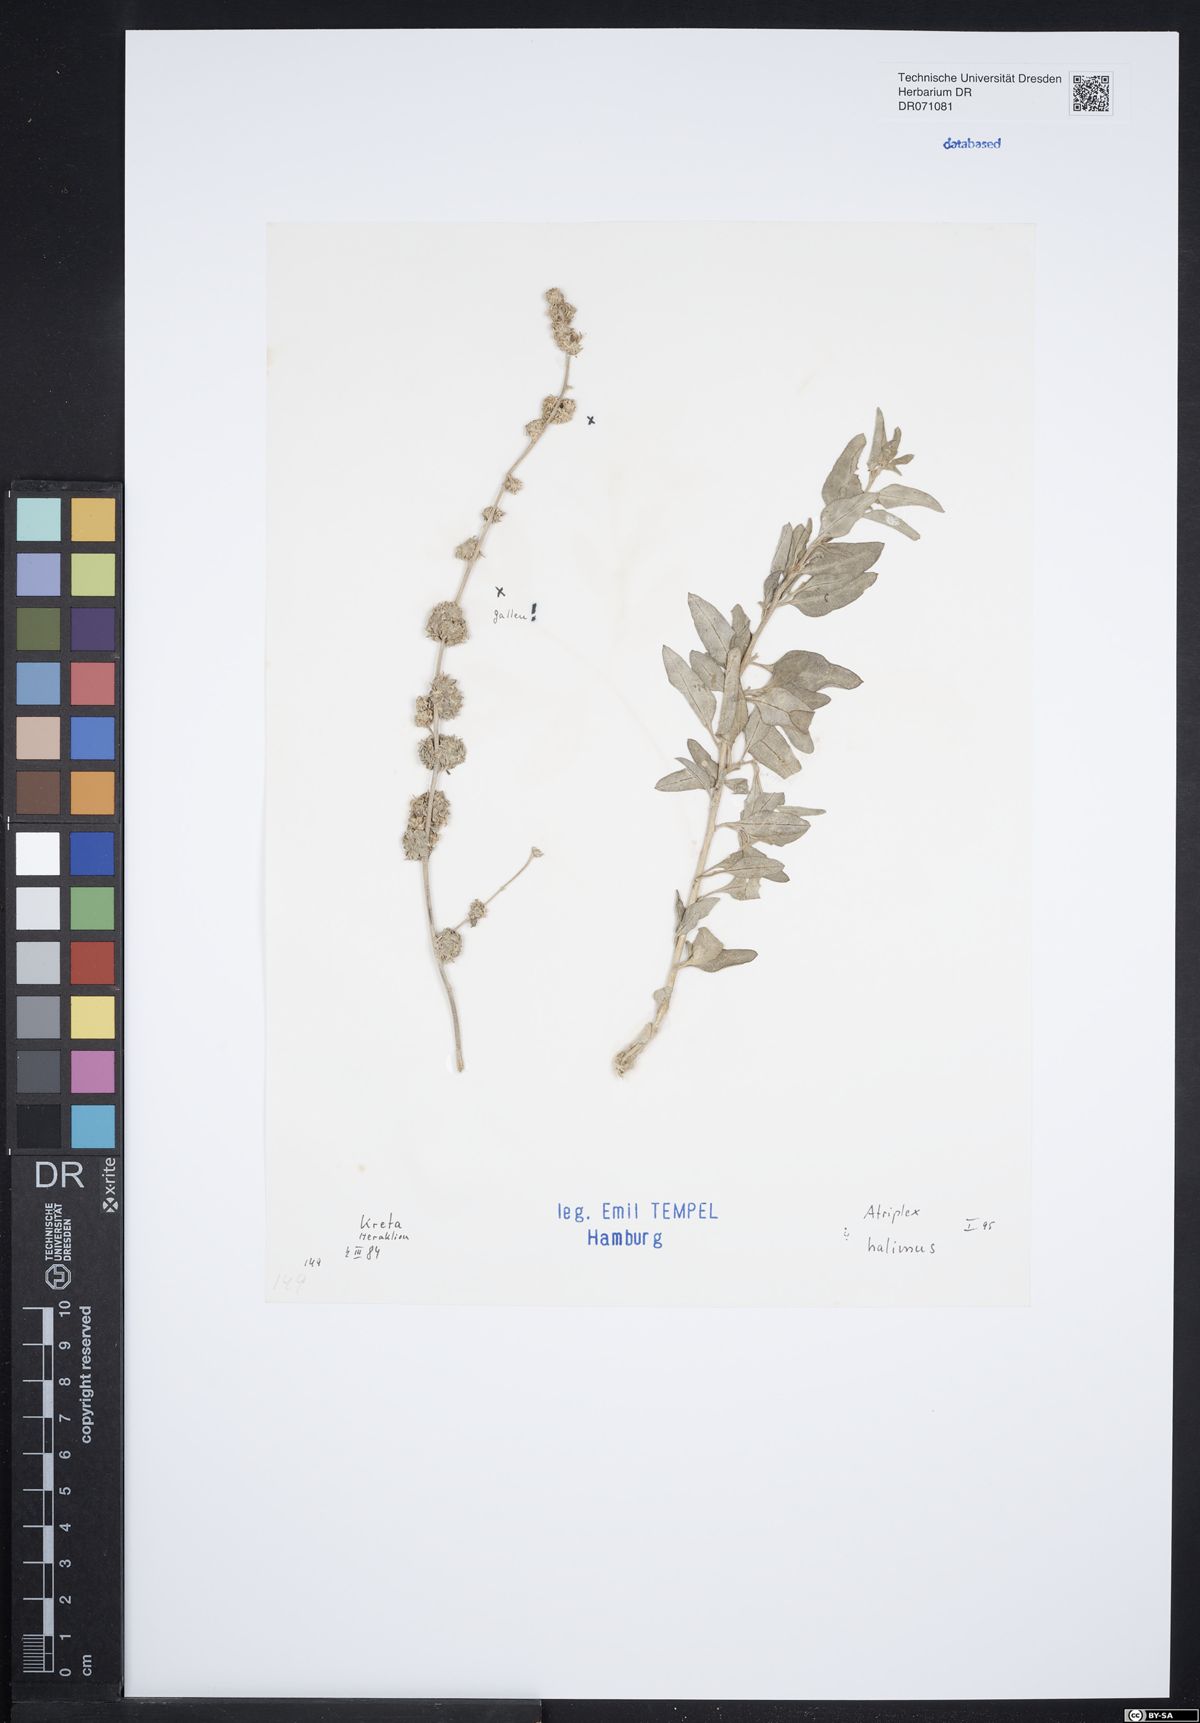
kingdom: Plantae
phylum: Tracheophyta
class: Magnoliopsida
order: Caryophyllales
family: Amaranthaceae
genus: Atriplex
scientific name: Atriplex halimus
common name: Shrubby orache
